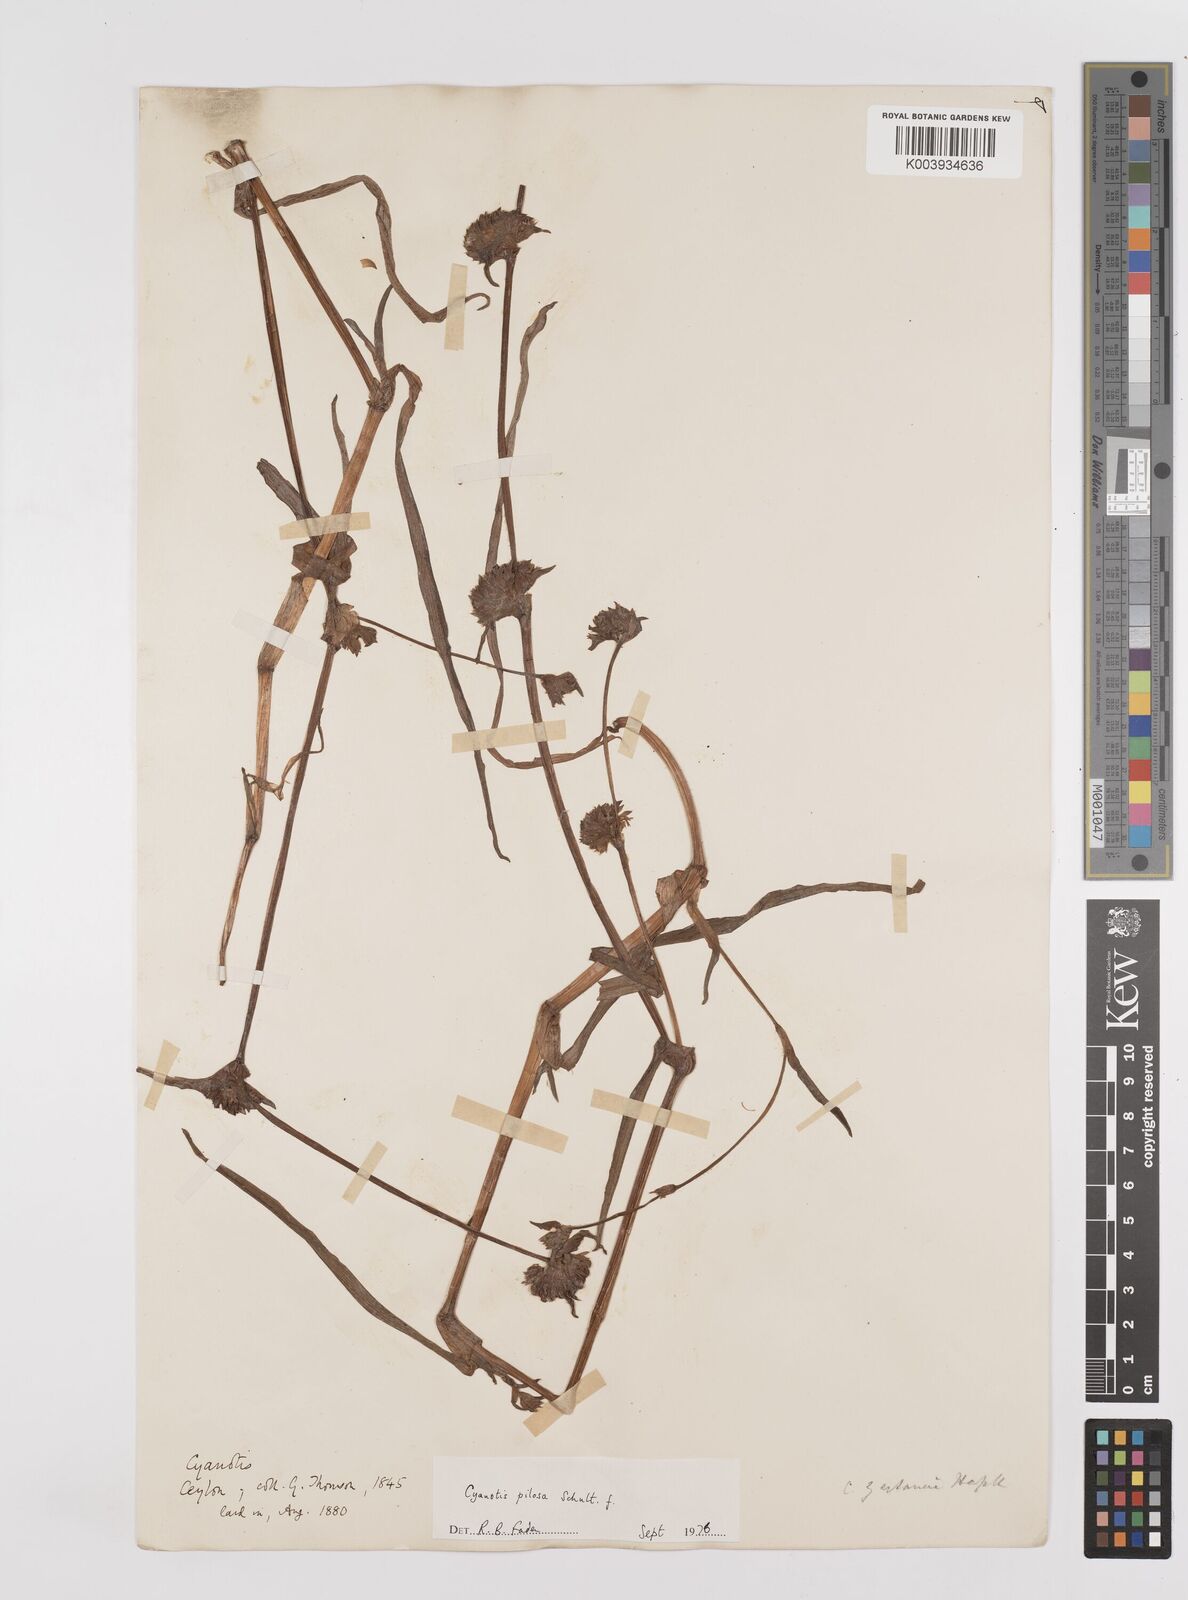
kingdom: Plantae
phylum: Tracheophyta
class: Liliopsida
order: Commelinales
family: Commelinaceae
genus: Cyanotis
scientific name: Cyanotis pilosa
